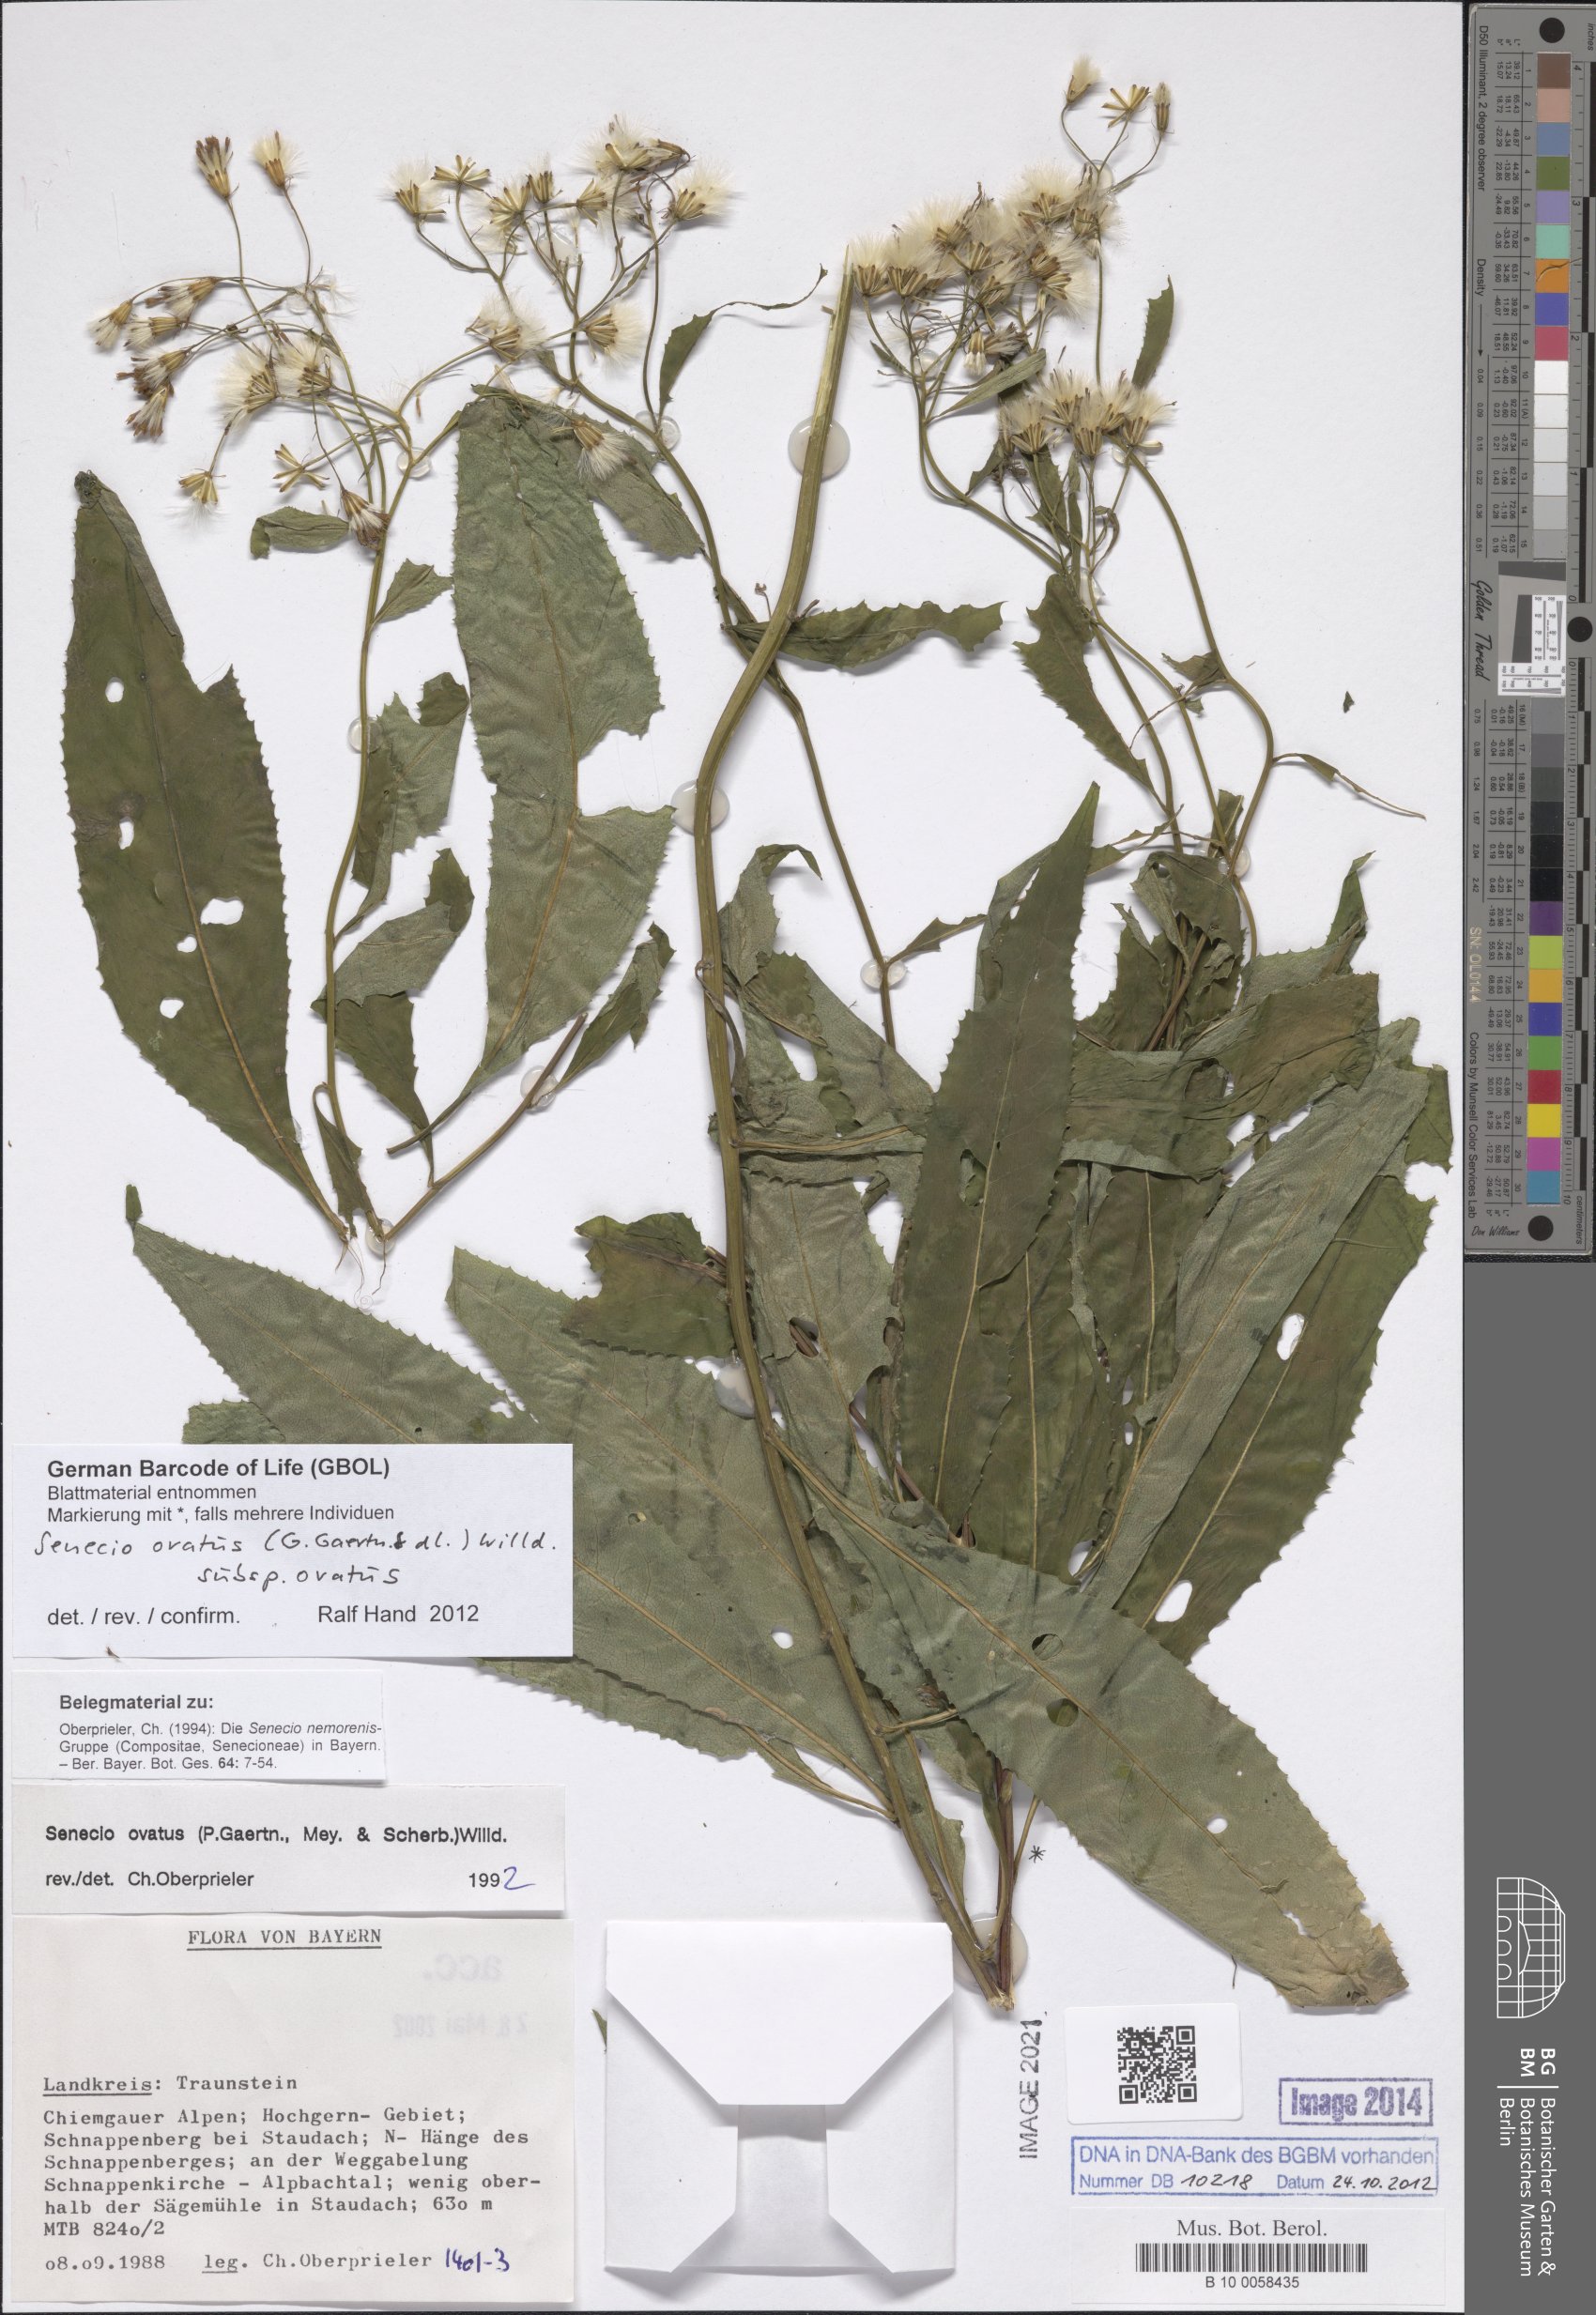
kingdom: Plantae
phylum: Tracheophyta
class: Magnoliopsida
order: Asterales
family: Asteraceae
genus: Senecio
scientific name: Senecio ovatus
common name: Wood ragwort
